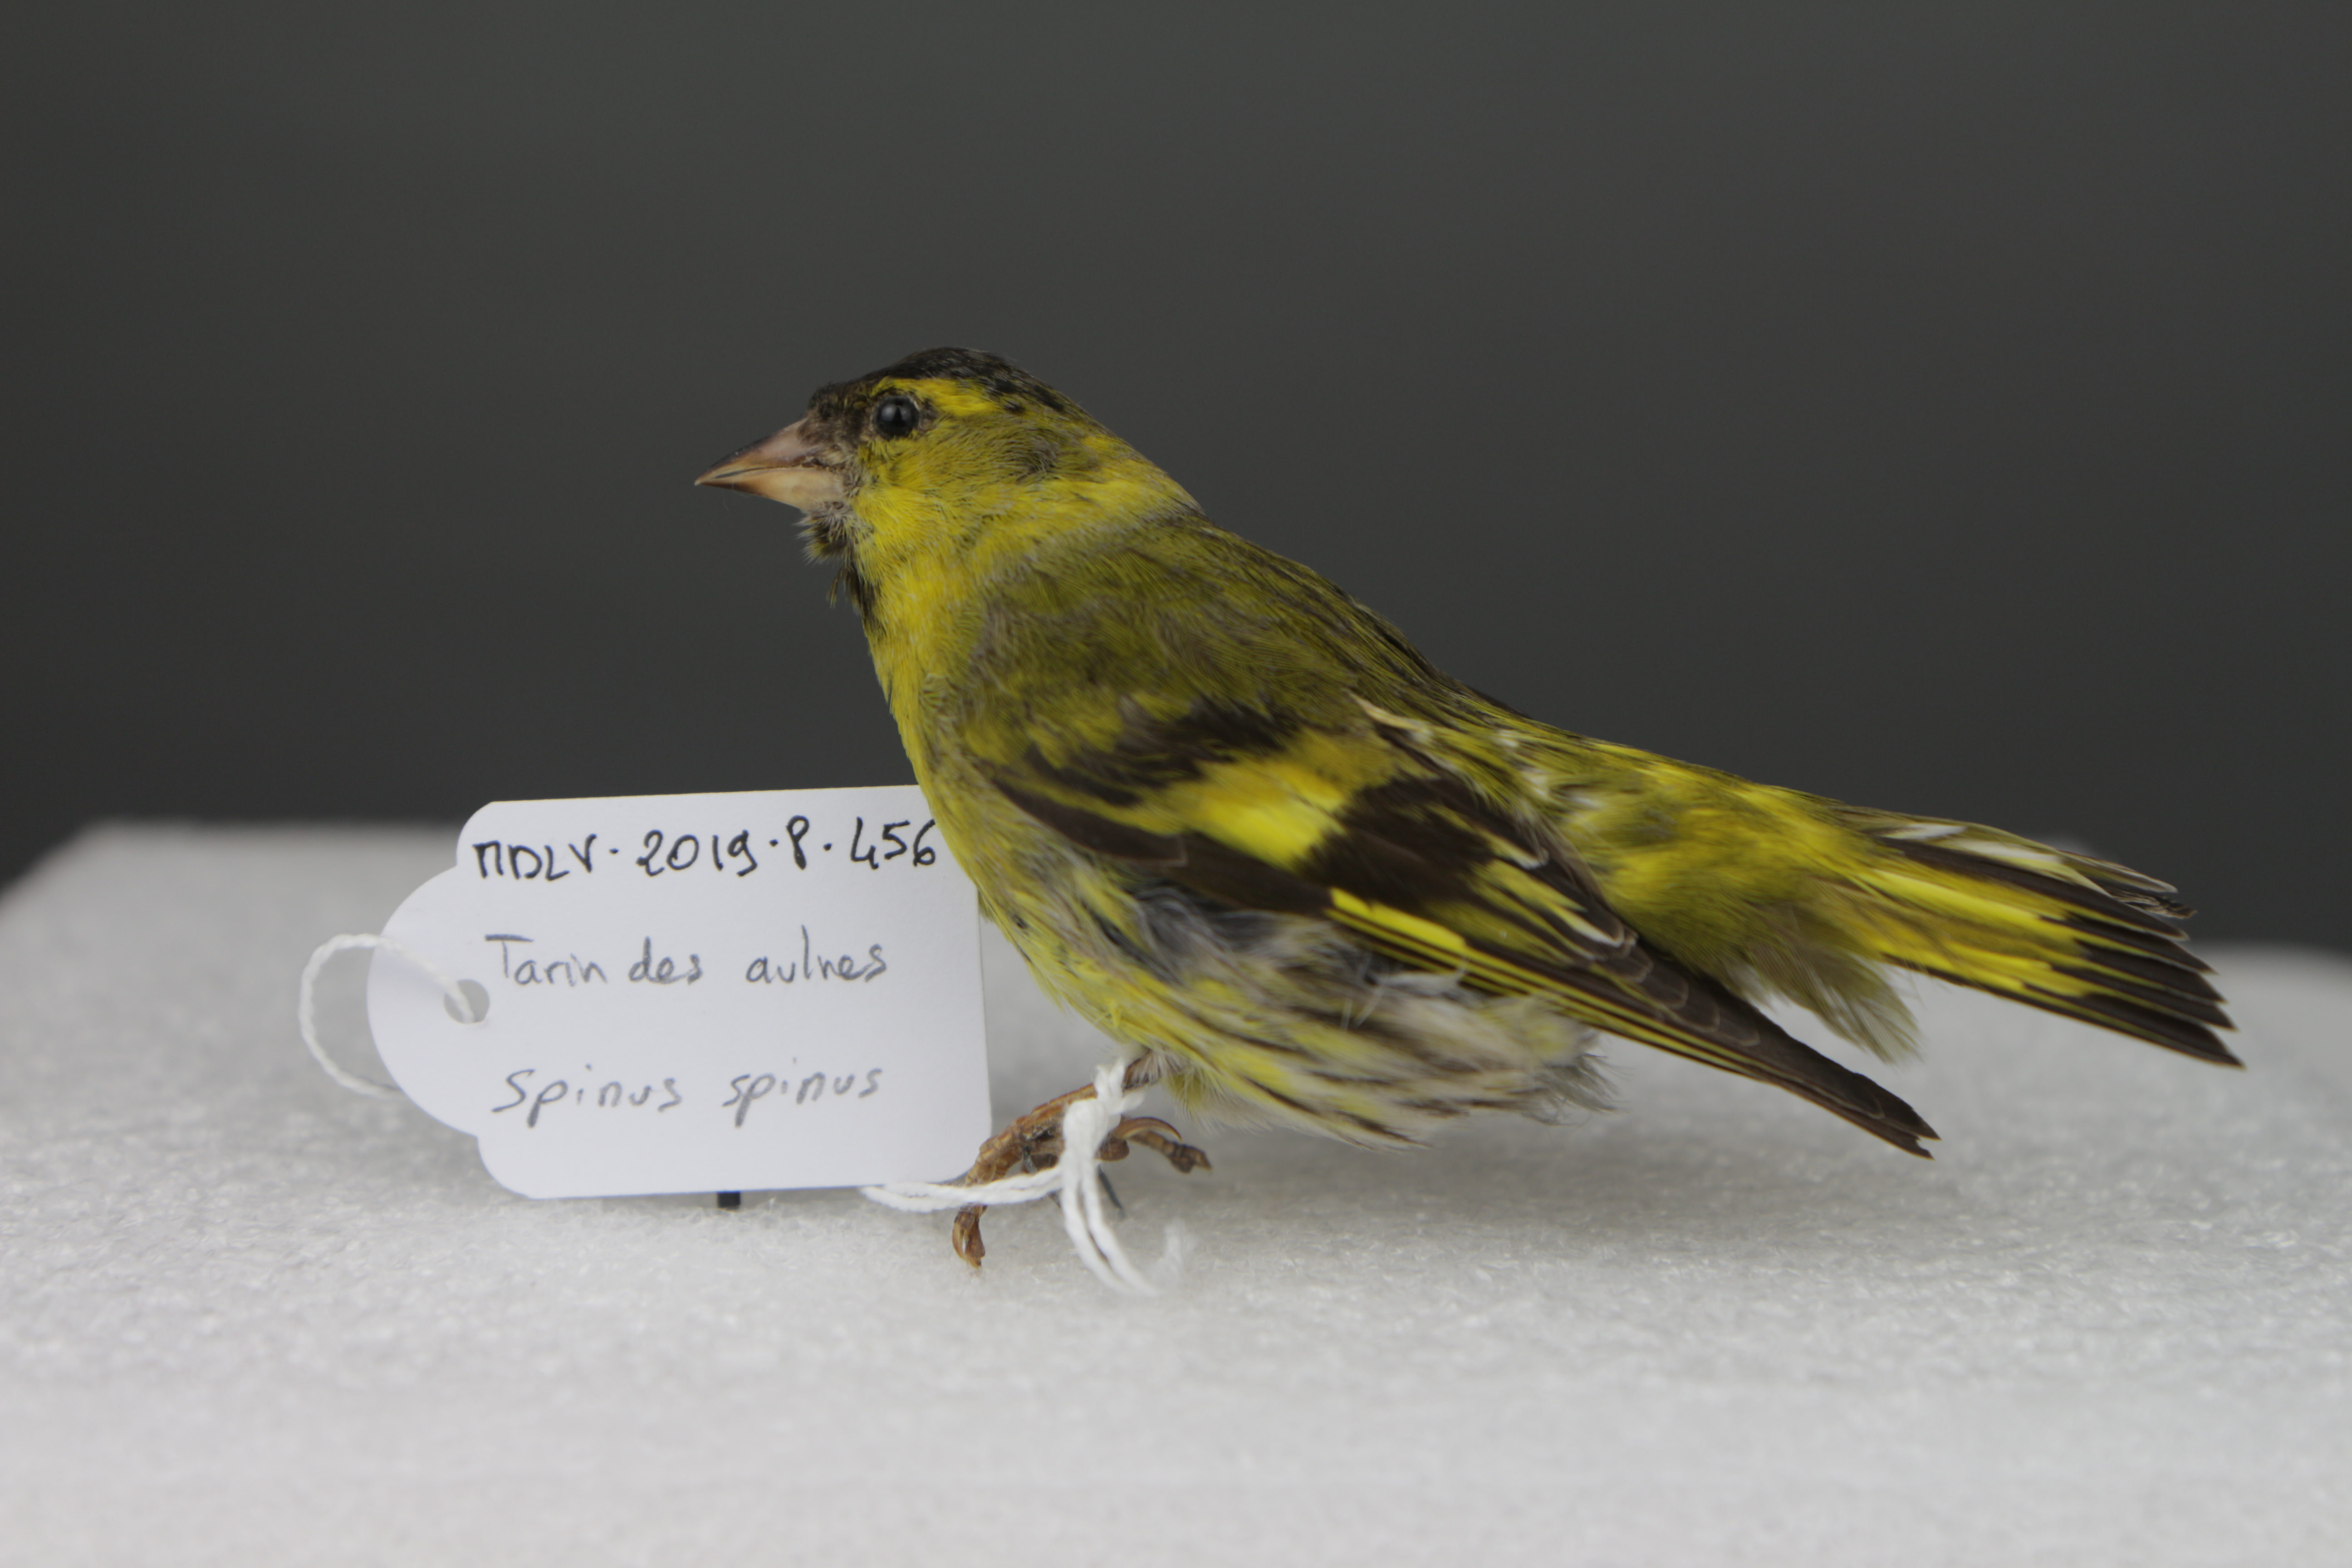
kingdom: Animalia
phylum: Chordata
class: Aves
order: Passeriformes
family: Fringillidae
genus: Spinus
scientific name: Spinus spinus
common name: Eurasian siskin
